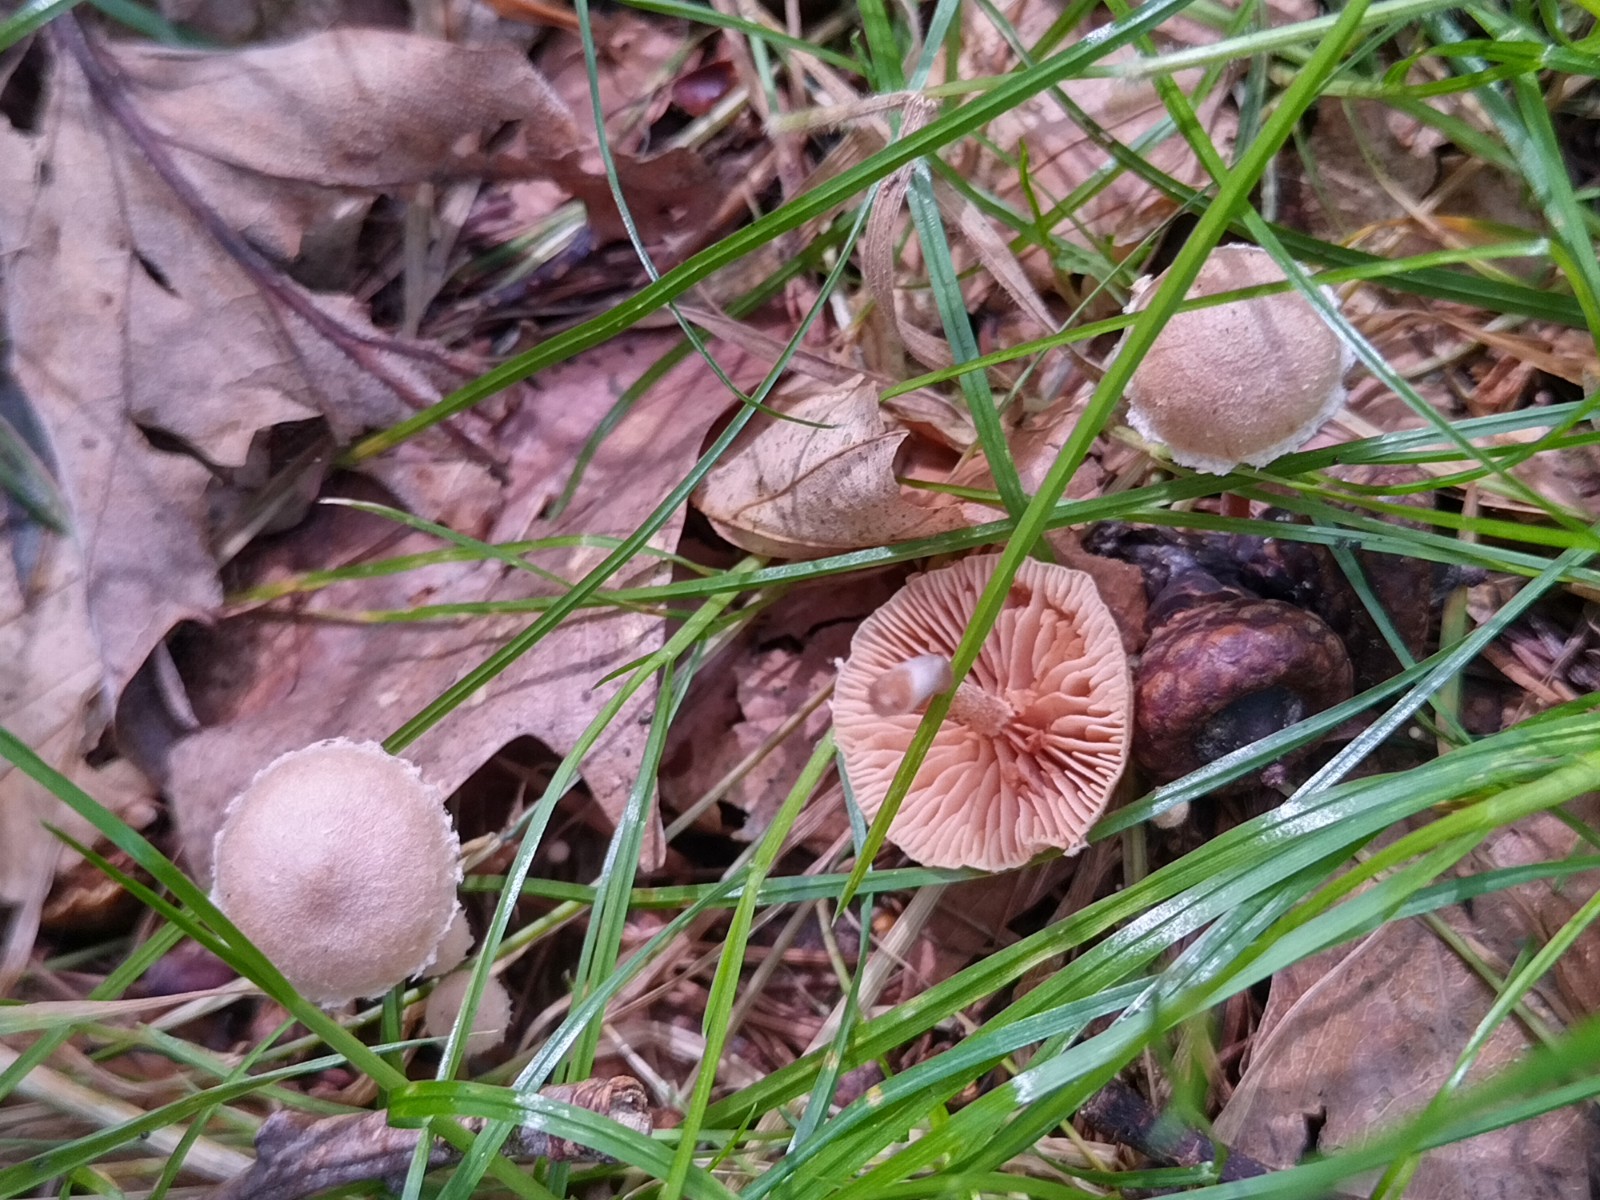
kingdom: Fungi
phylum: Basidiomycota
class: Agaricomycetes
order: Agaricales
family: Hydnangiaceae
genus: Laccaria
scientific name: Laccaria laccata
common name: rød ametysthat
